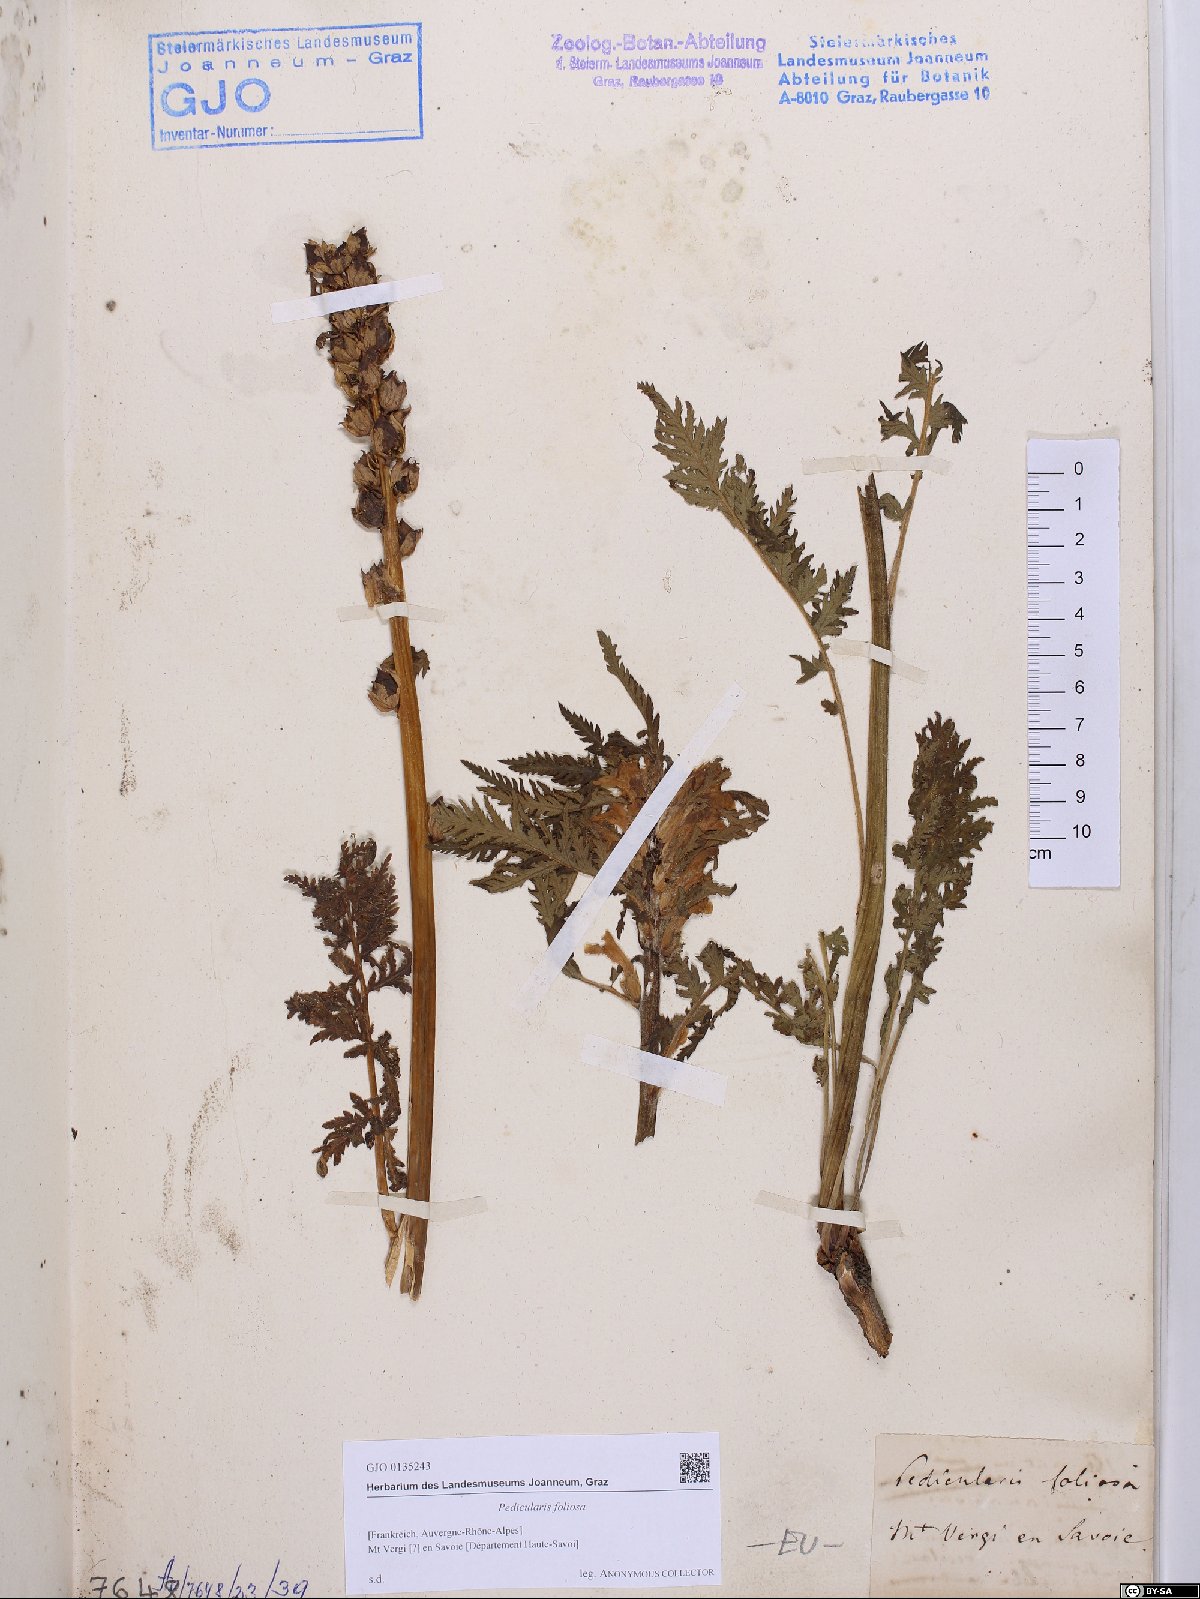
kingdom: Plantae
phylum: Tracheophyta
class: Magnoliopsida
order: Lamiales
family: Orobanchaceae
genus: Pedicularis
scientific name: Pedicularis foliosa
